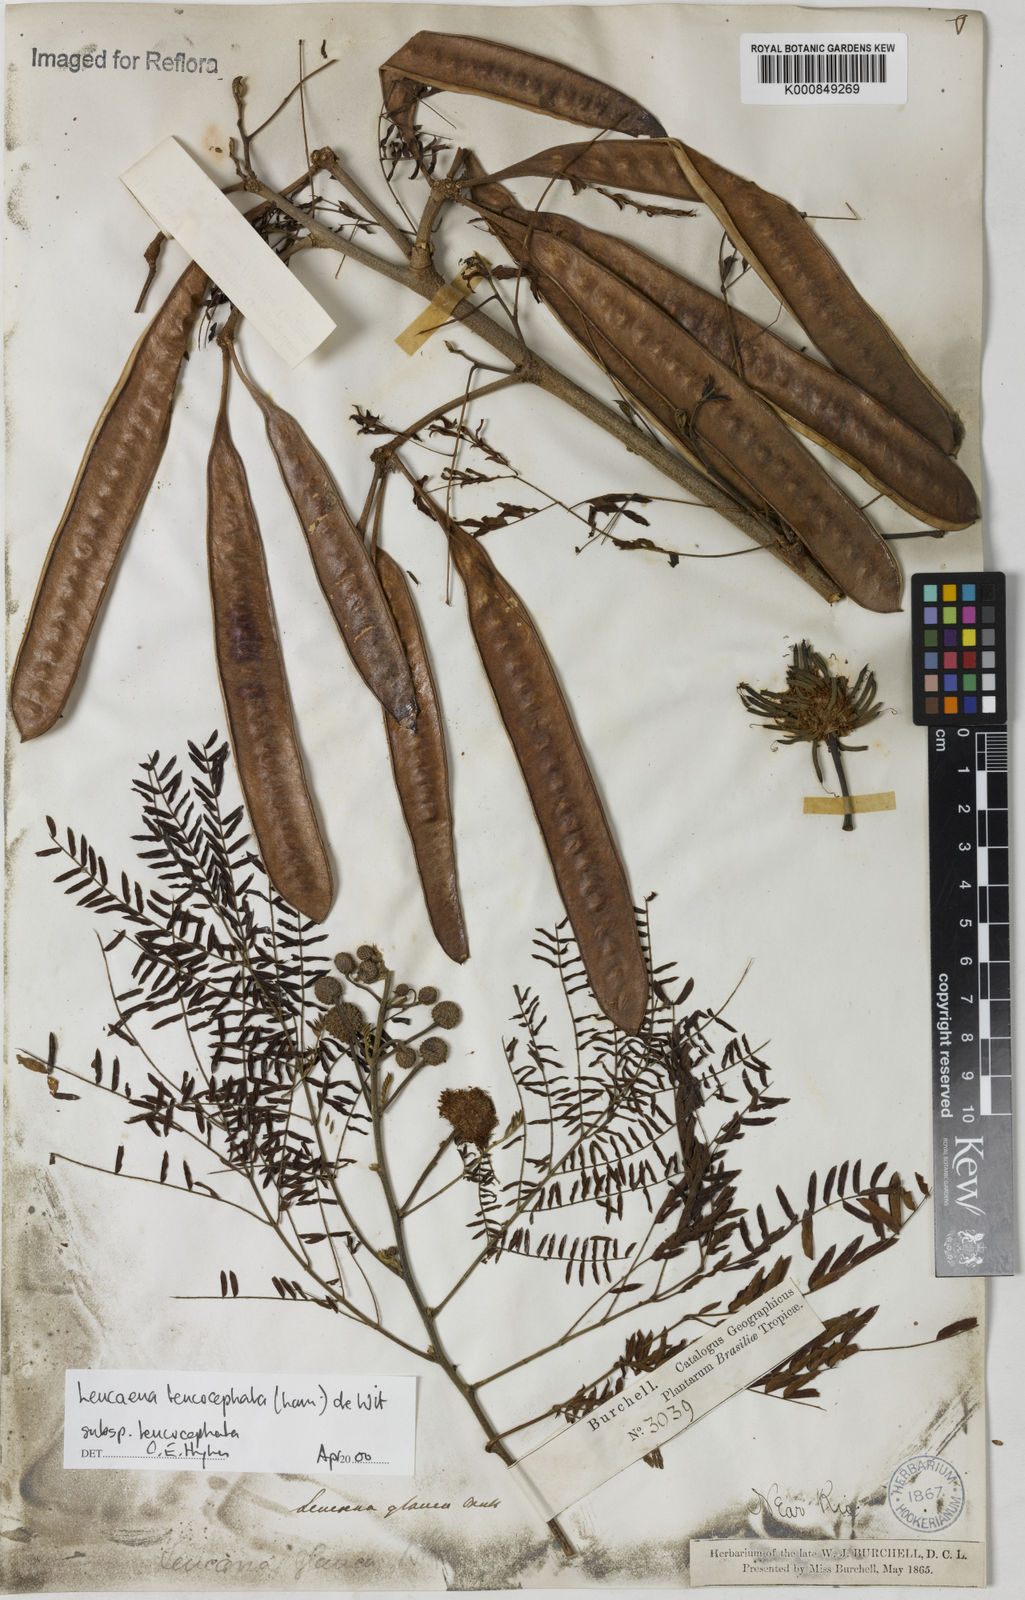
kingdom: Plantae
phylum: Tracheophyta
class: Magnoliopsida
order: Fabales
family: Fabaceae
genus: Leucaena
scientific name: Leucaena leucocephala
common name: White leadtree
